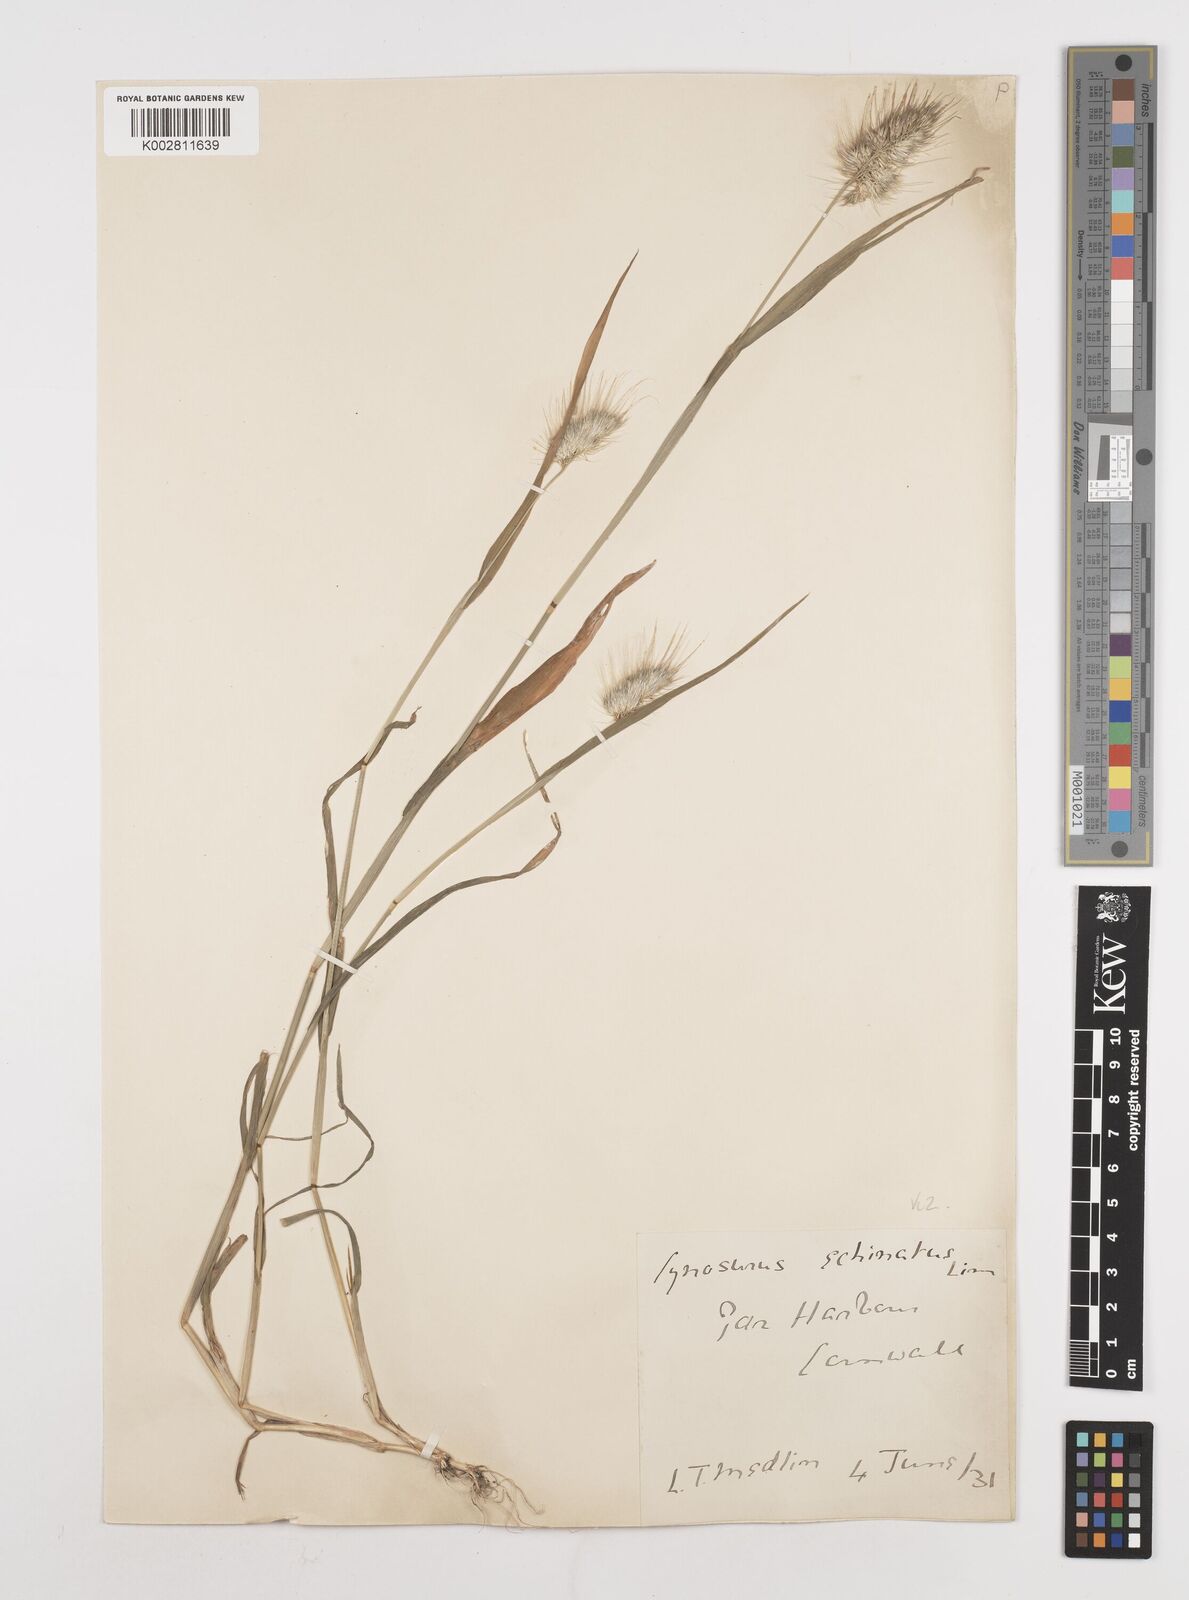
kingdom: Plantae
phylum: Tracheophyta
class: Liliopsida
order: Poales
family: Poaceae
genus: Cynosurus
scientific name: Cynosurus echinatus
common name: Rough dog's-tail
